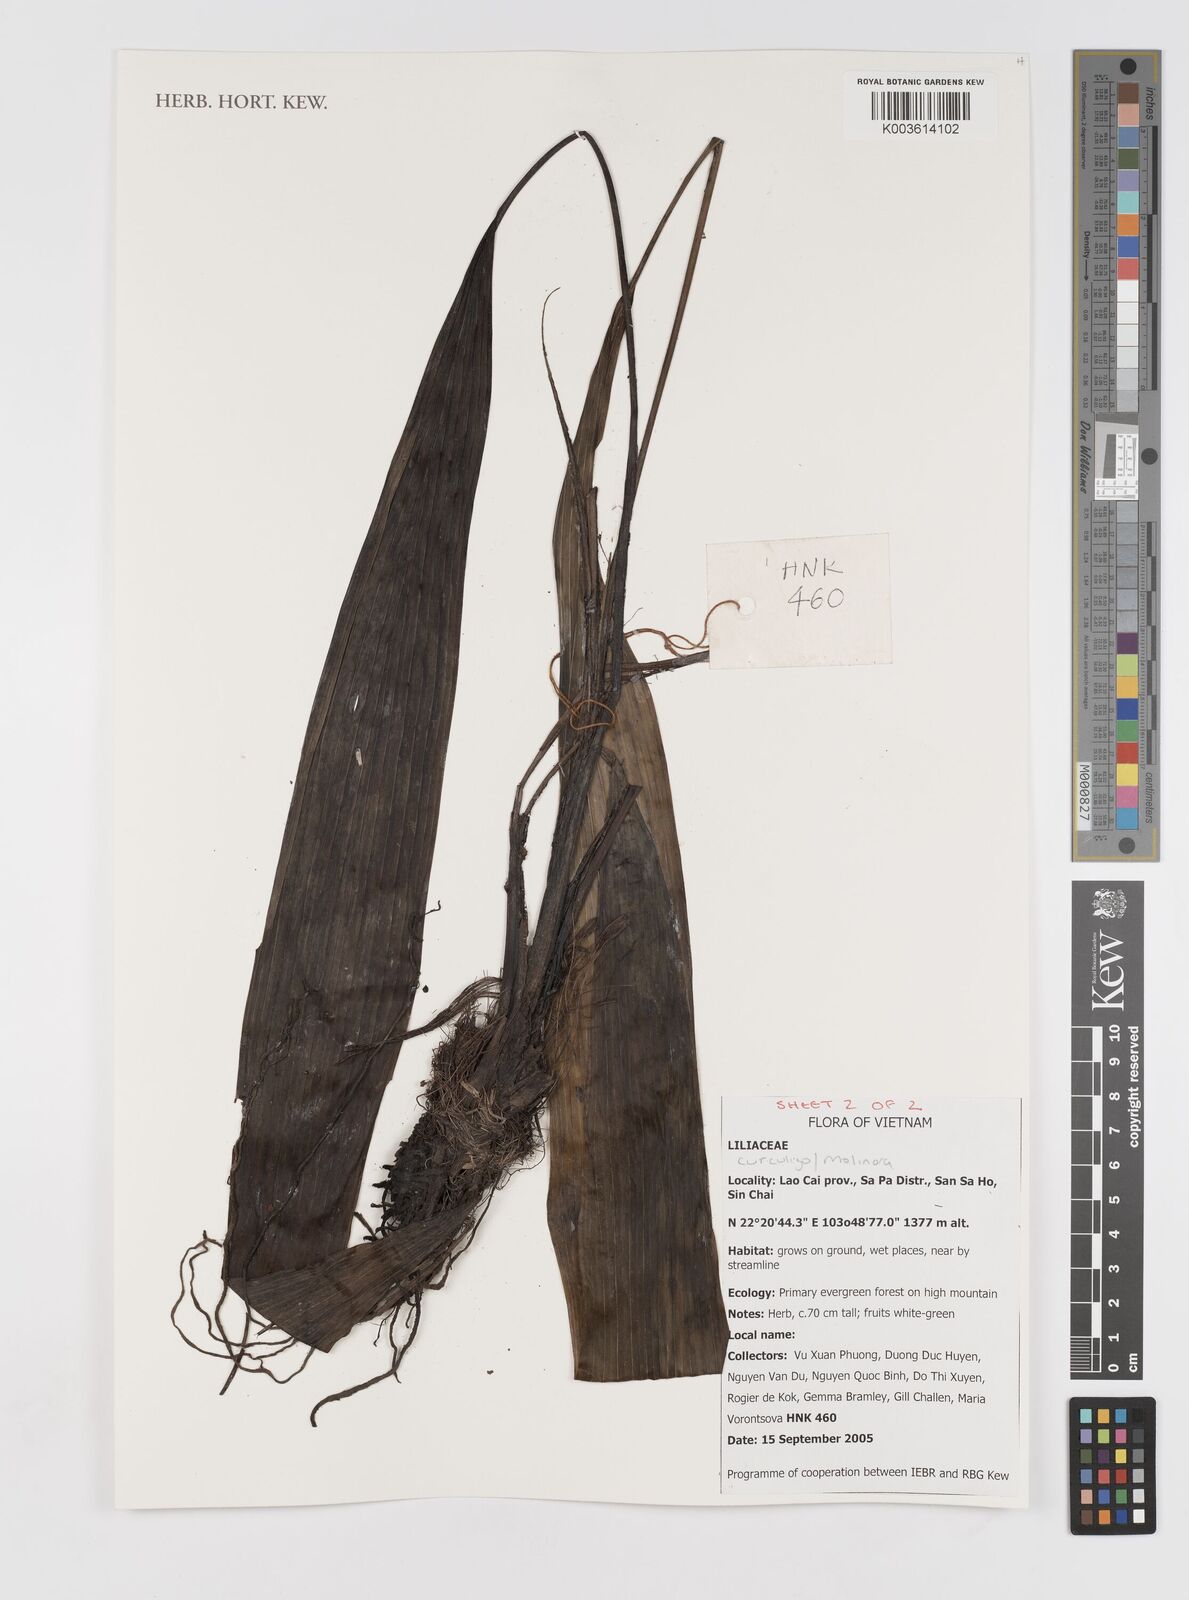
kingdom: Plantae
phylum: Tracheophyta
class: Liliopsida
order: Asparagales
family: Hypoxidaceae
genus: Curculigo
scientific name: Curculigo
